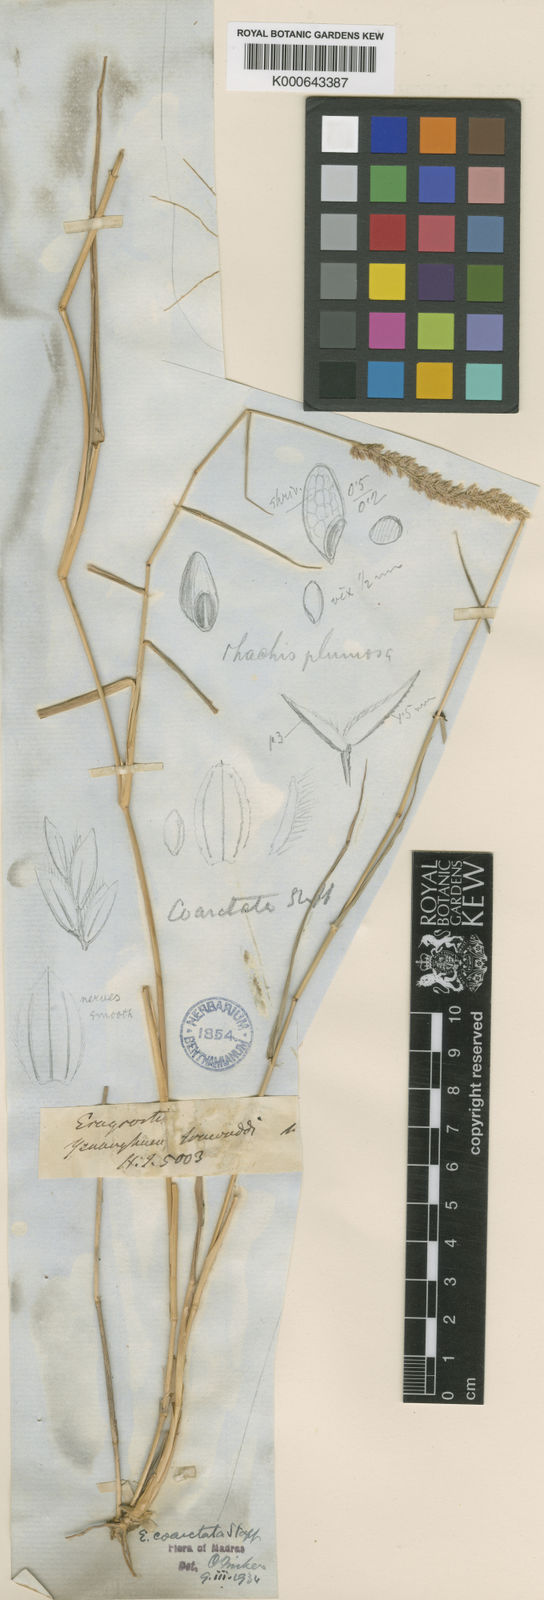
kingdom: Plantae
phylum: Tracheophyta
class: Liliopsida
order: Poales
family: Poaceae
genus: Eragrostis
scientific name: Eragrostis coarctata
